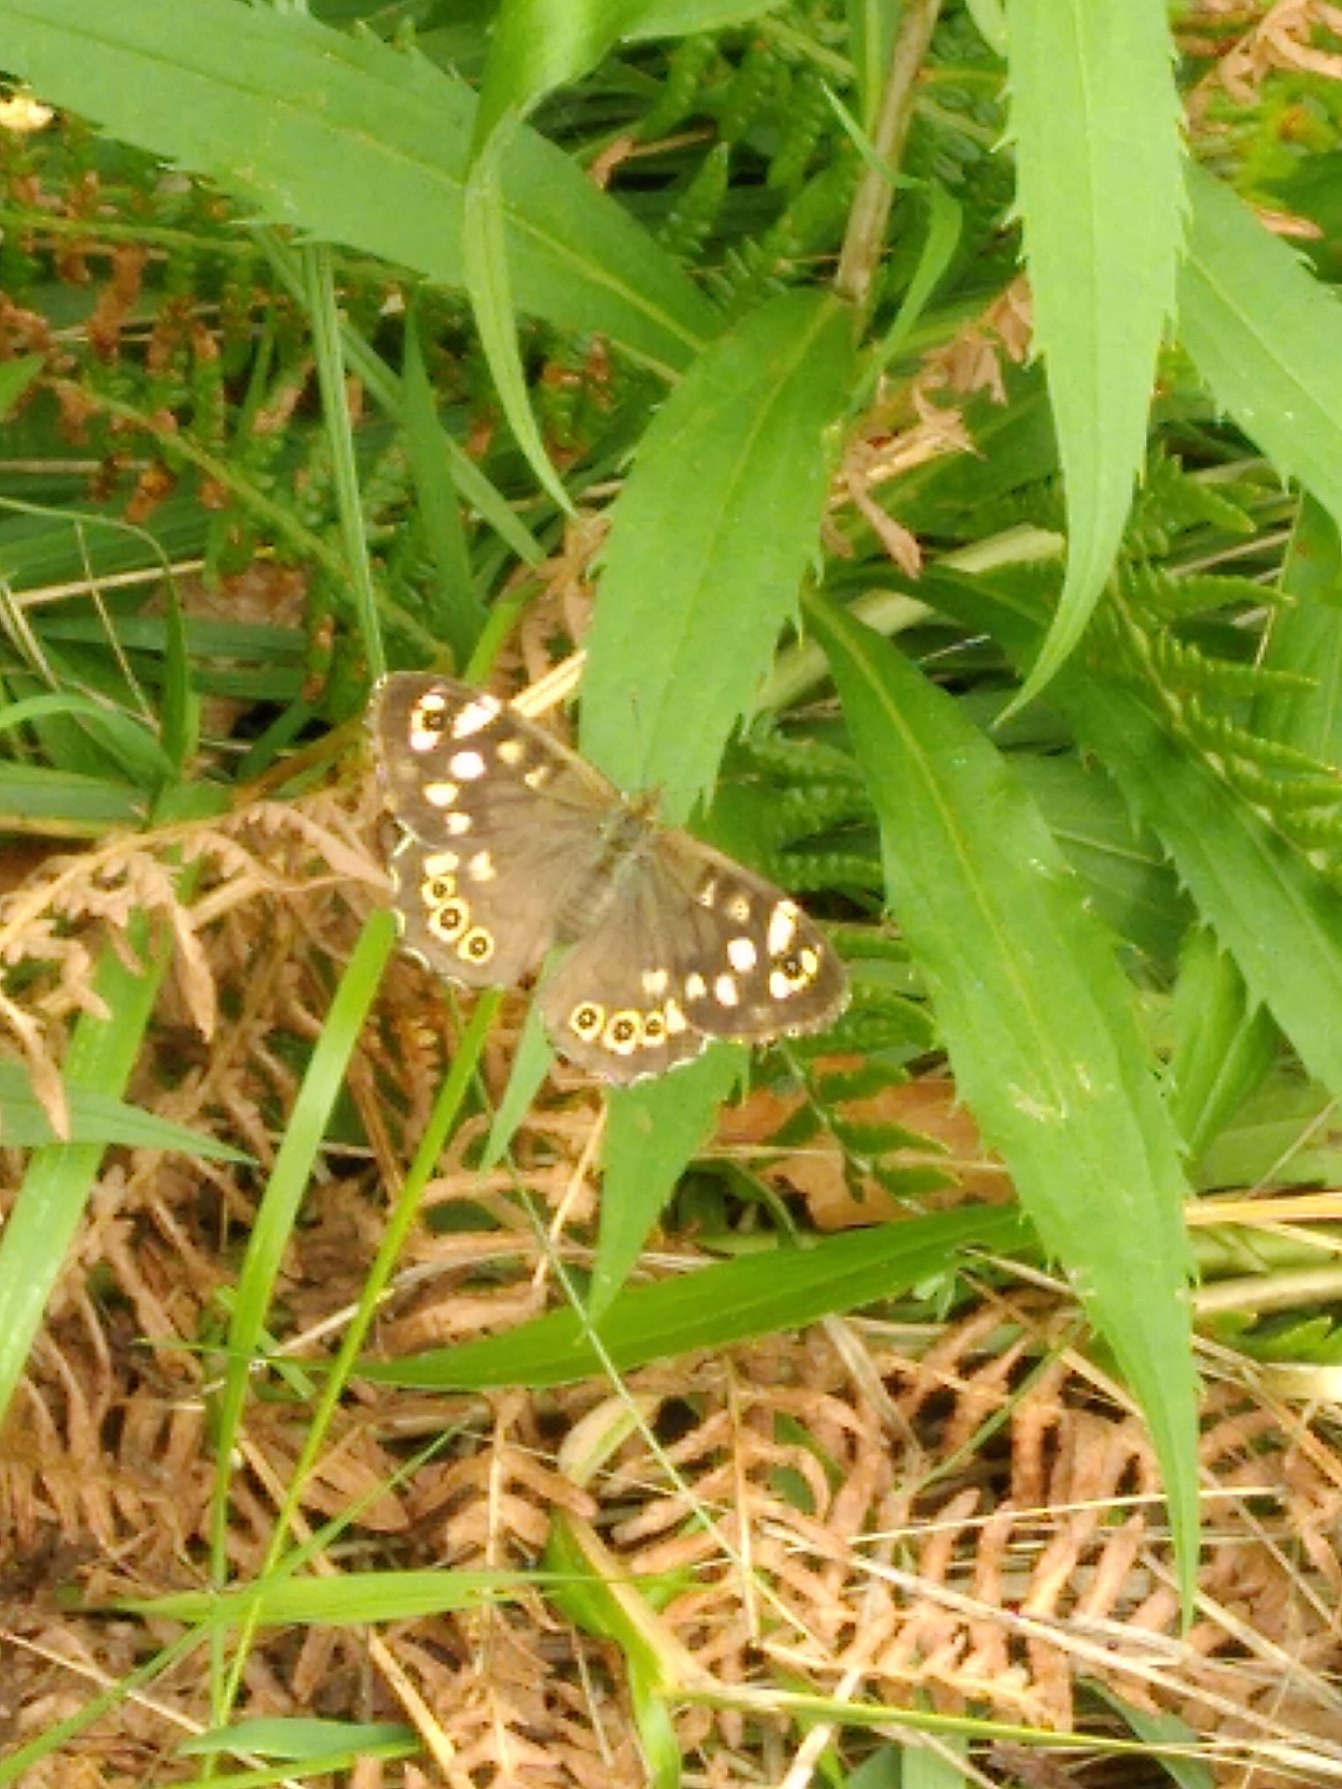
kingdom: Animalia
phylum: Arthropoda
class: Insecta
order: Lepidoptera
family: Nymphalidae
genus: Pararge
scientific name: Pararge aegeria
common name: Skovrandøje
